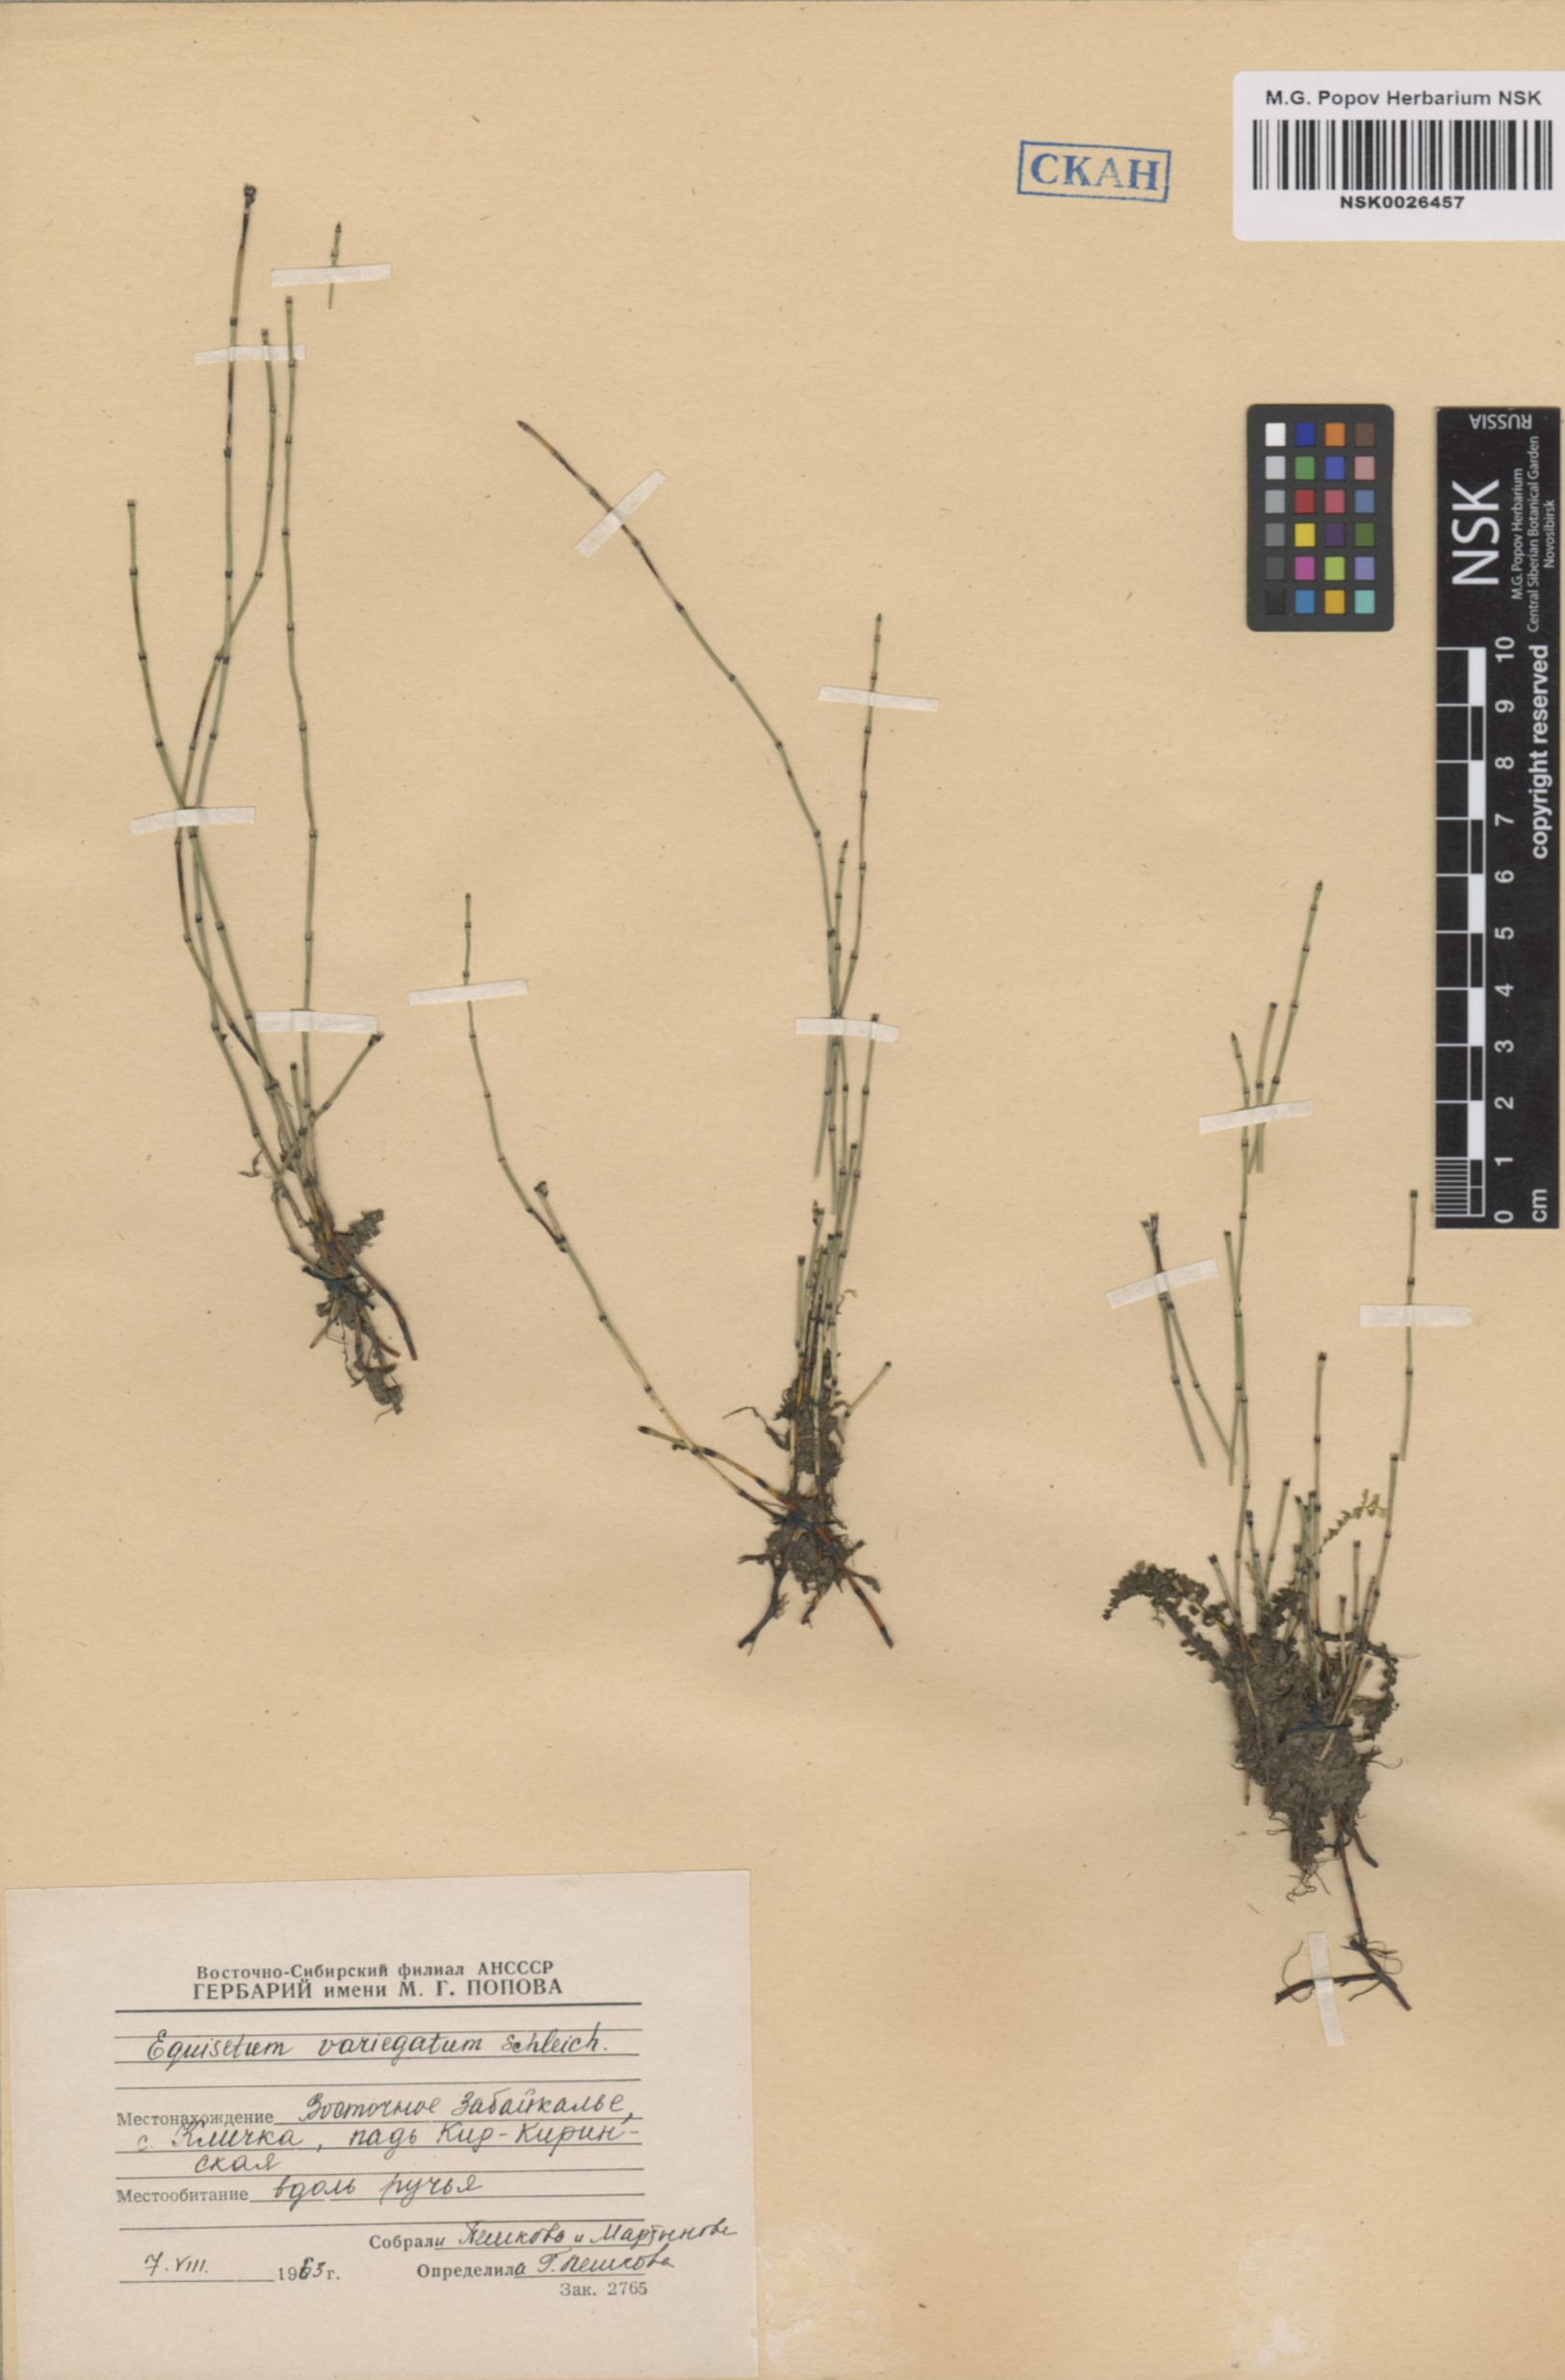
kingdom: Plantae
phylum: Tracheophyta
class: Polypodiopsida
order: Equisetales
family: Equisetaceae
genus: Equisetum
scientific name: Equisetum variegatum
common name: Variegated horsetail
